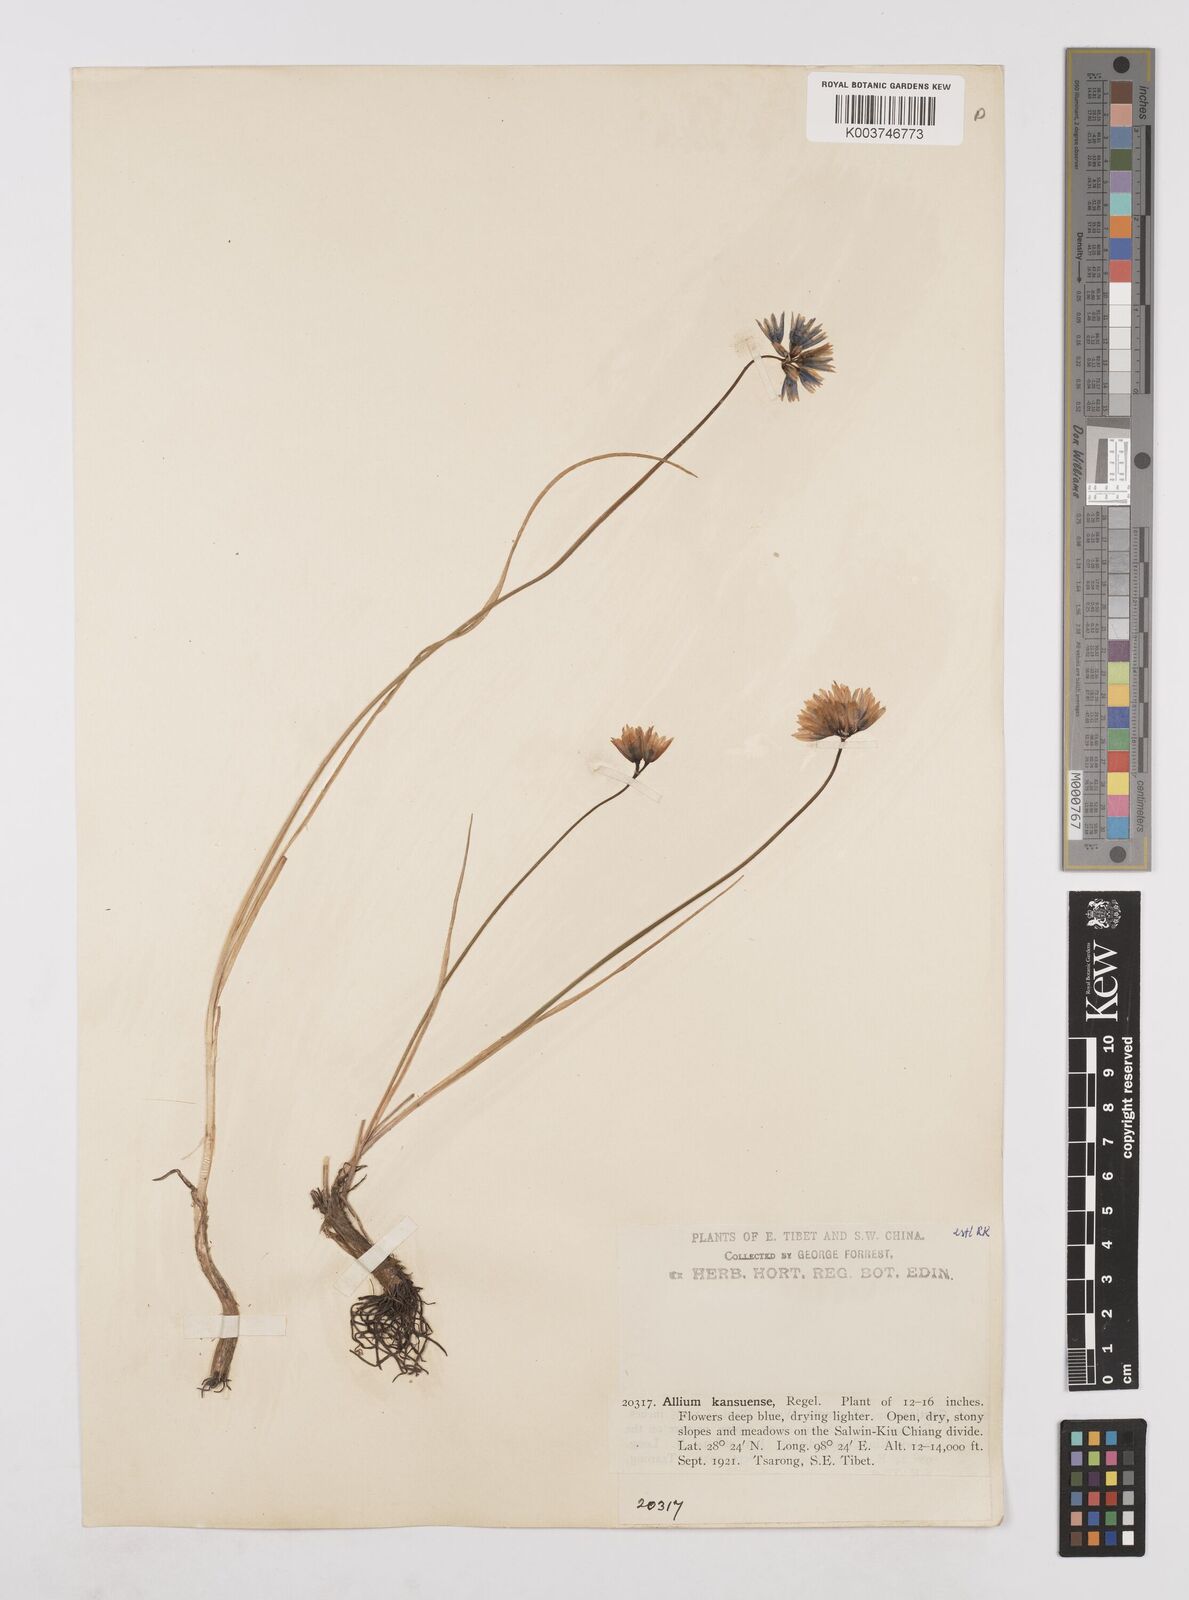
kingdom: Plantae
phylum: Tracheophyta
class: Liliopsida
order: Asparagales
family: Amaryllidaceae
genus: Allium
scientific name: Allium sikkimense
